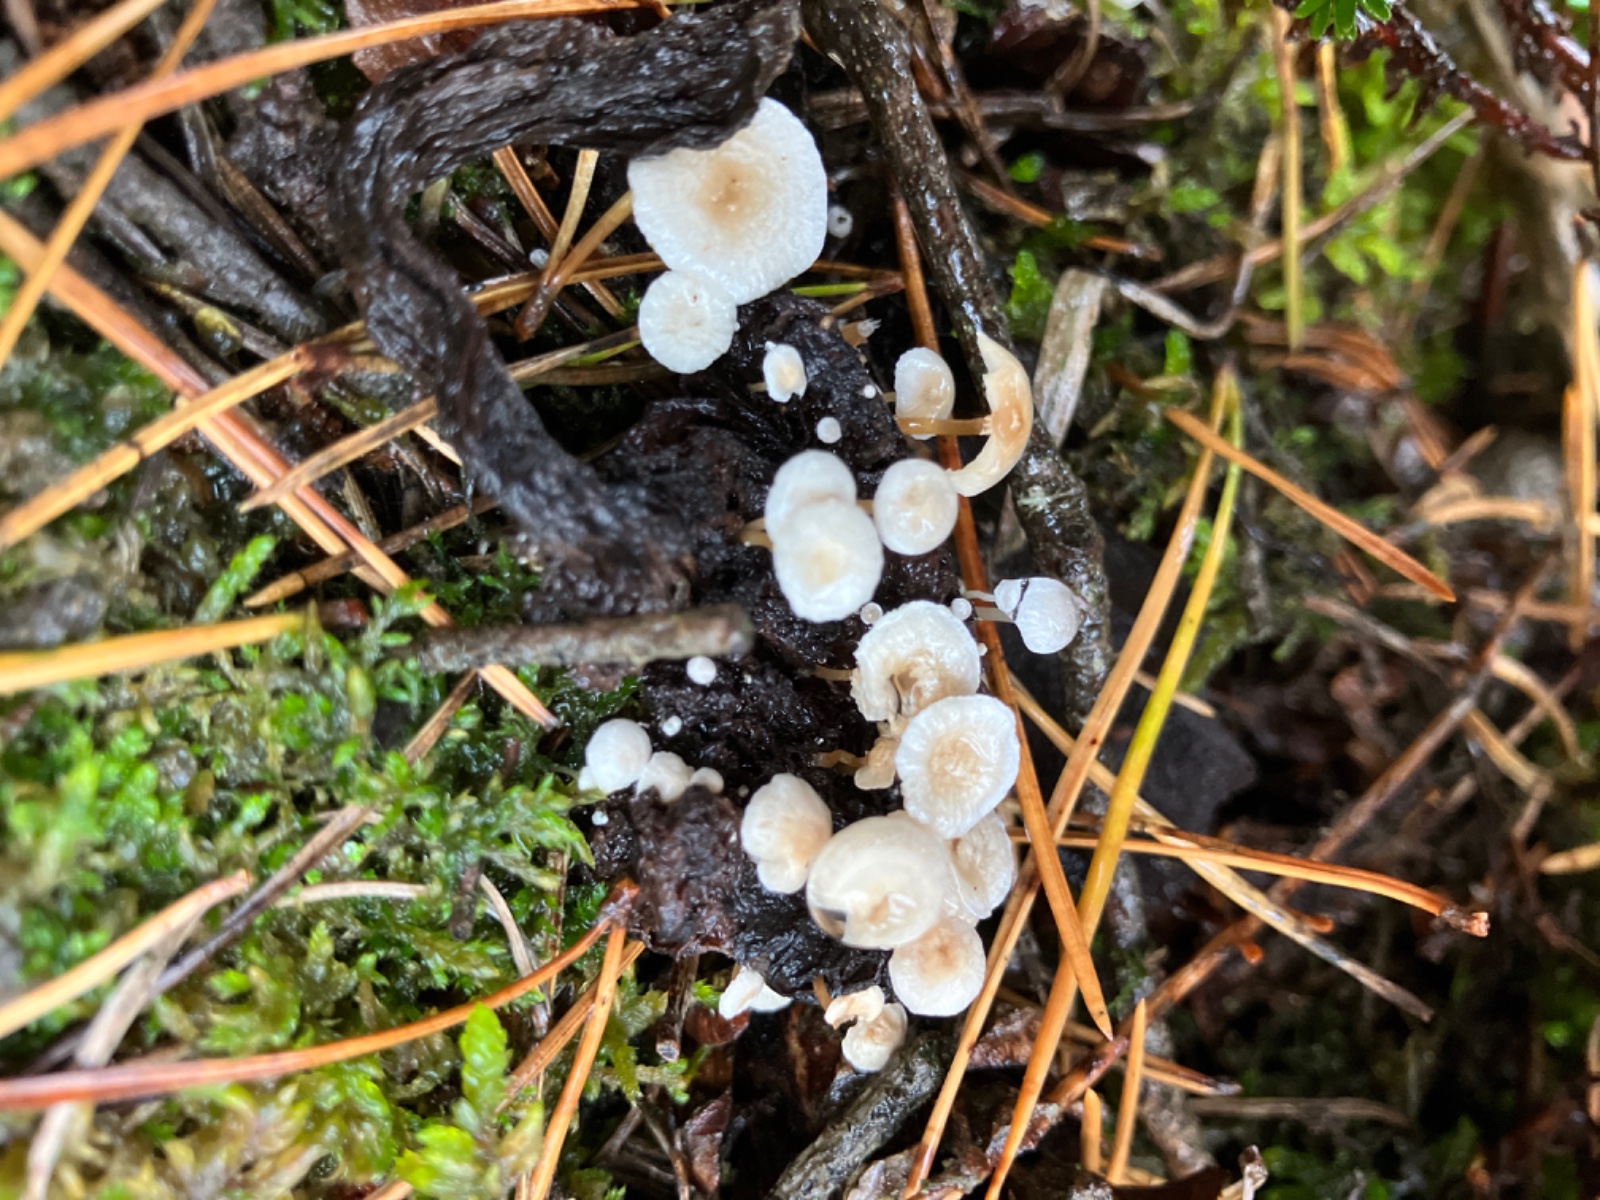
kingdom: Fungi
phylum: Basidiomycota
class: Agaricomycetes
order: Agaricales
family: Tricholomataceae
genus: Collybia
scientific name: Collybia cirrhata
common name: silke-lighat
